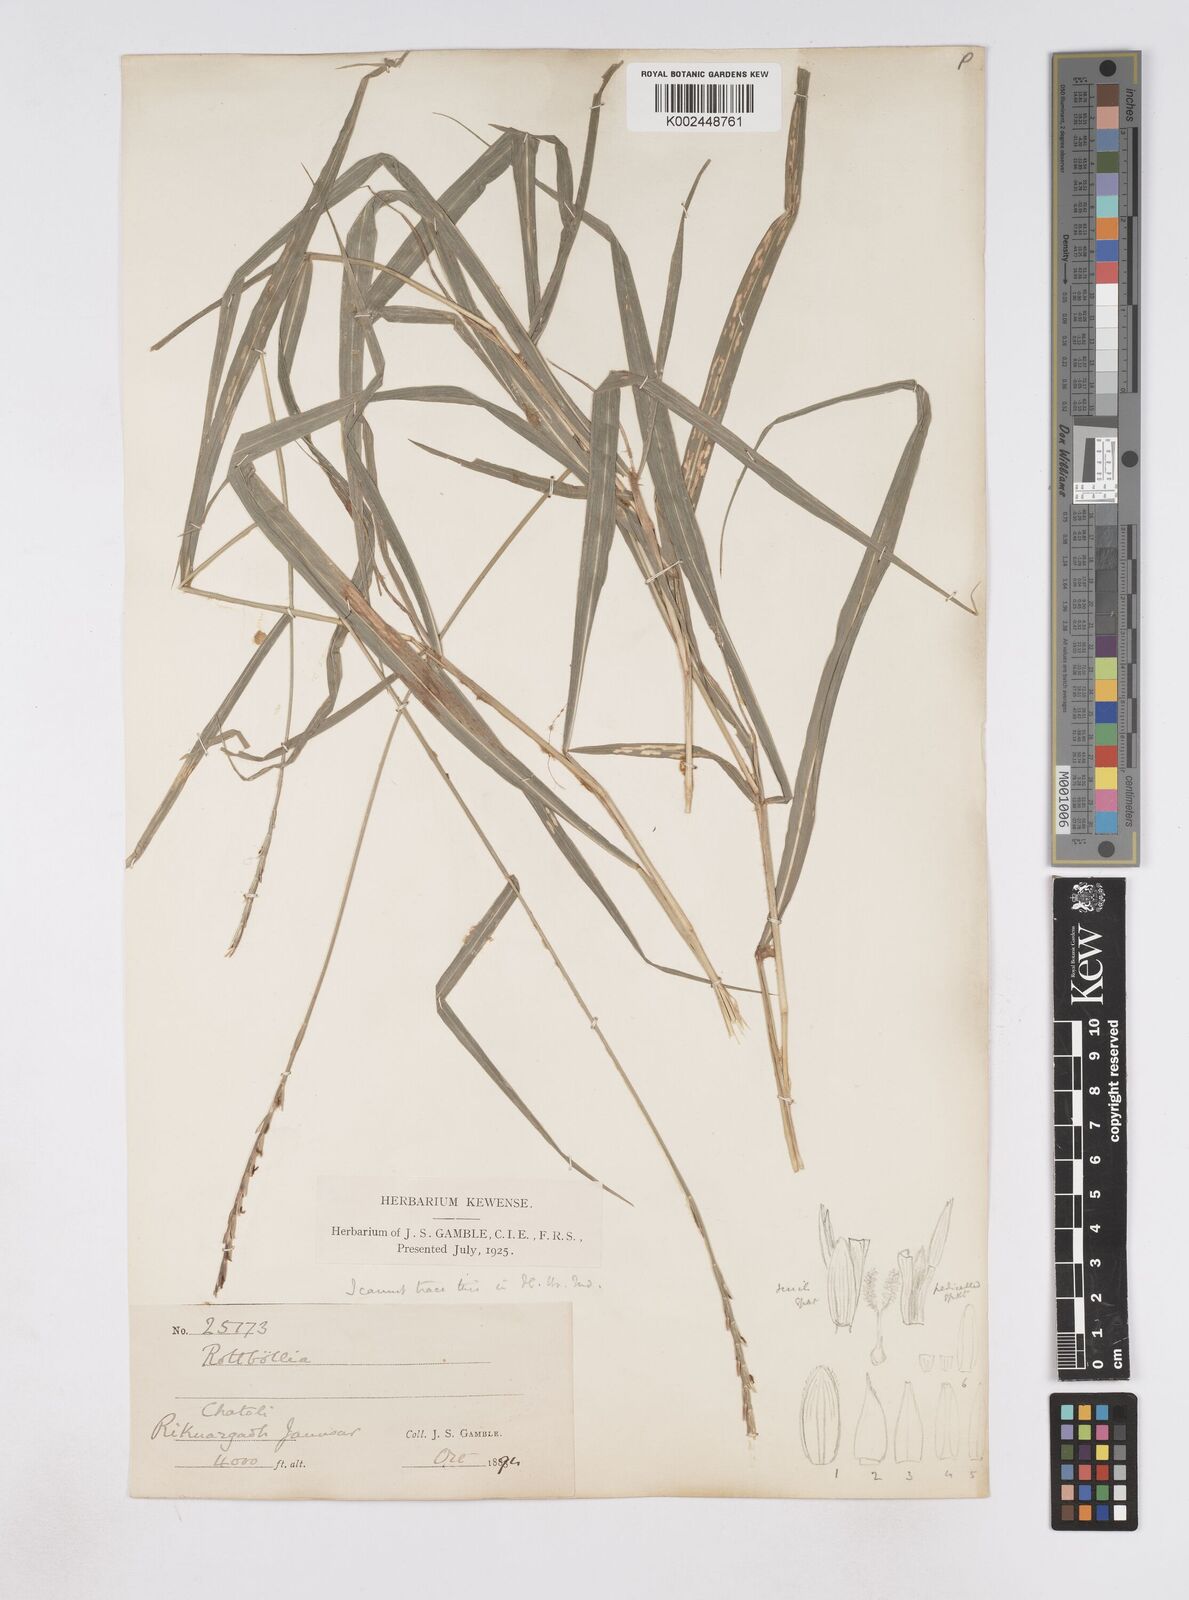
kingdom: Plantae
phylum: Tracheophyta
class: Liliopsida
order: Poales
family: Poaceae
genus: Phacelurus
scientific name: Phacelurus speciosus
